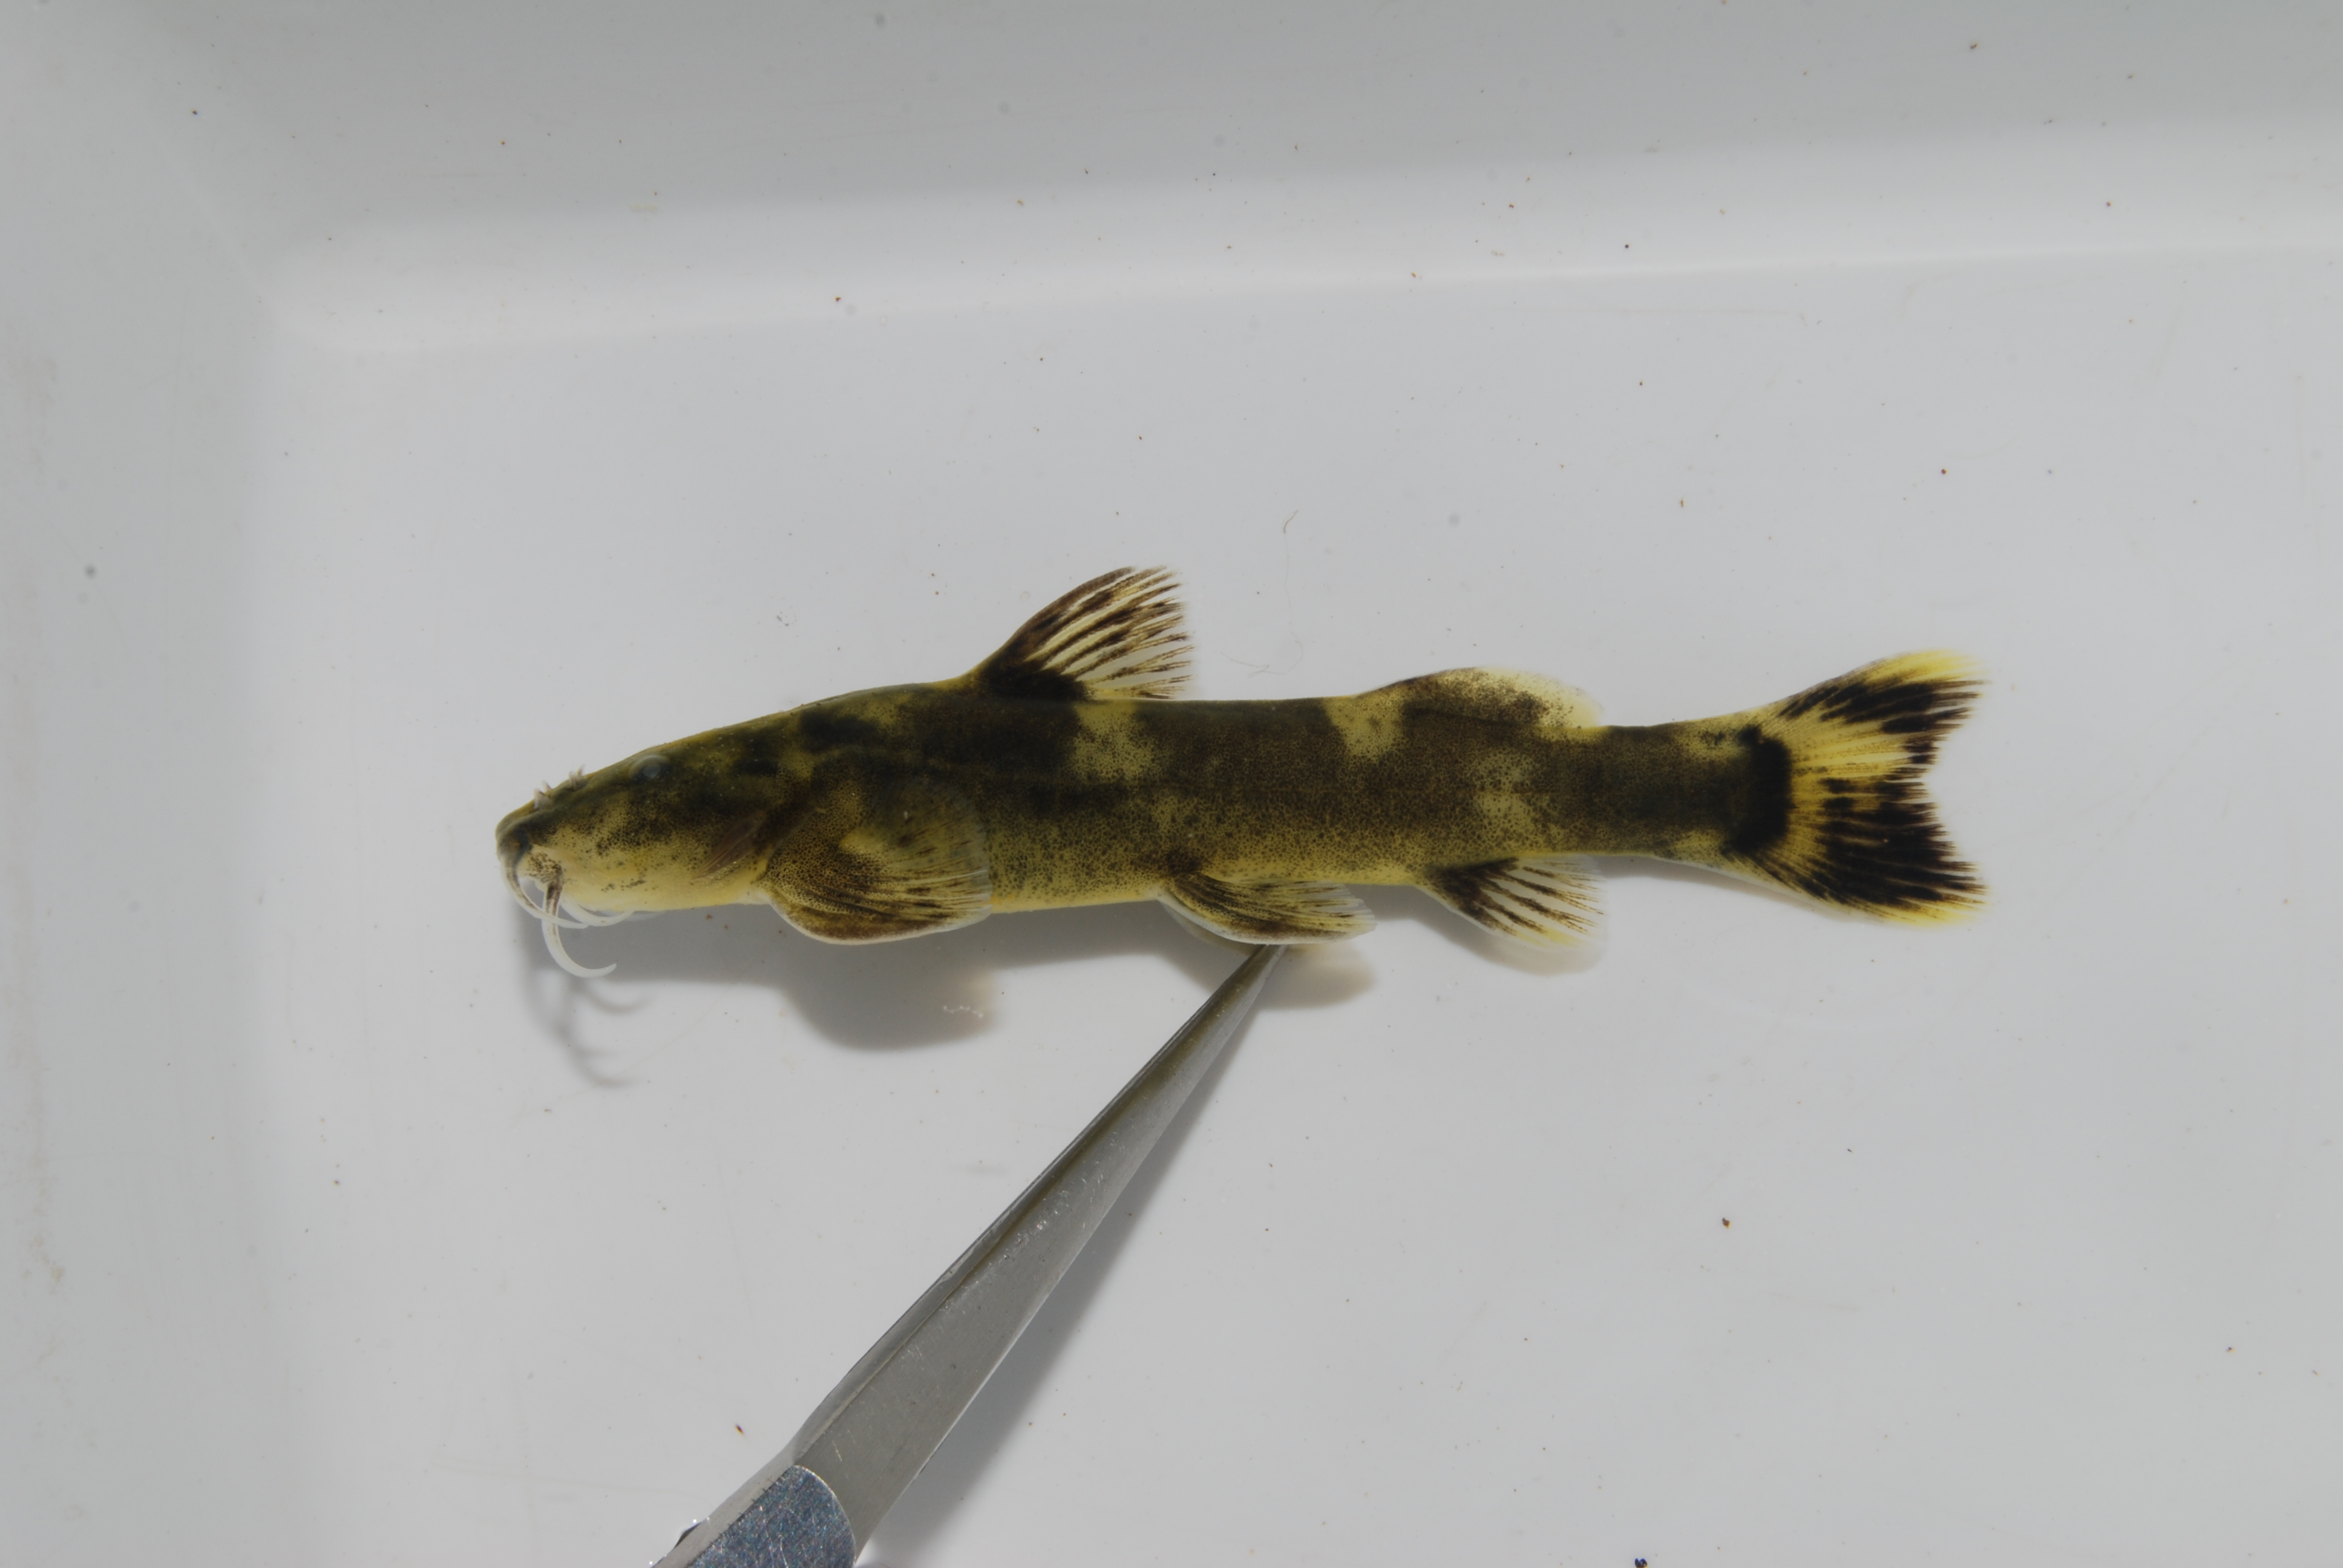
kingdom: Animalia
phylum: Chordata
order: Siluriformes
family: Amphiliidae
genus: Amphilius
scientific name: Amphilius uranoscopus
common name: Stargazer mountain catfish
